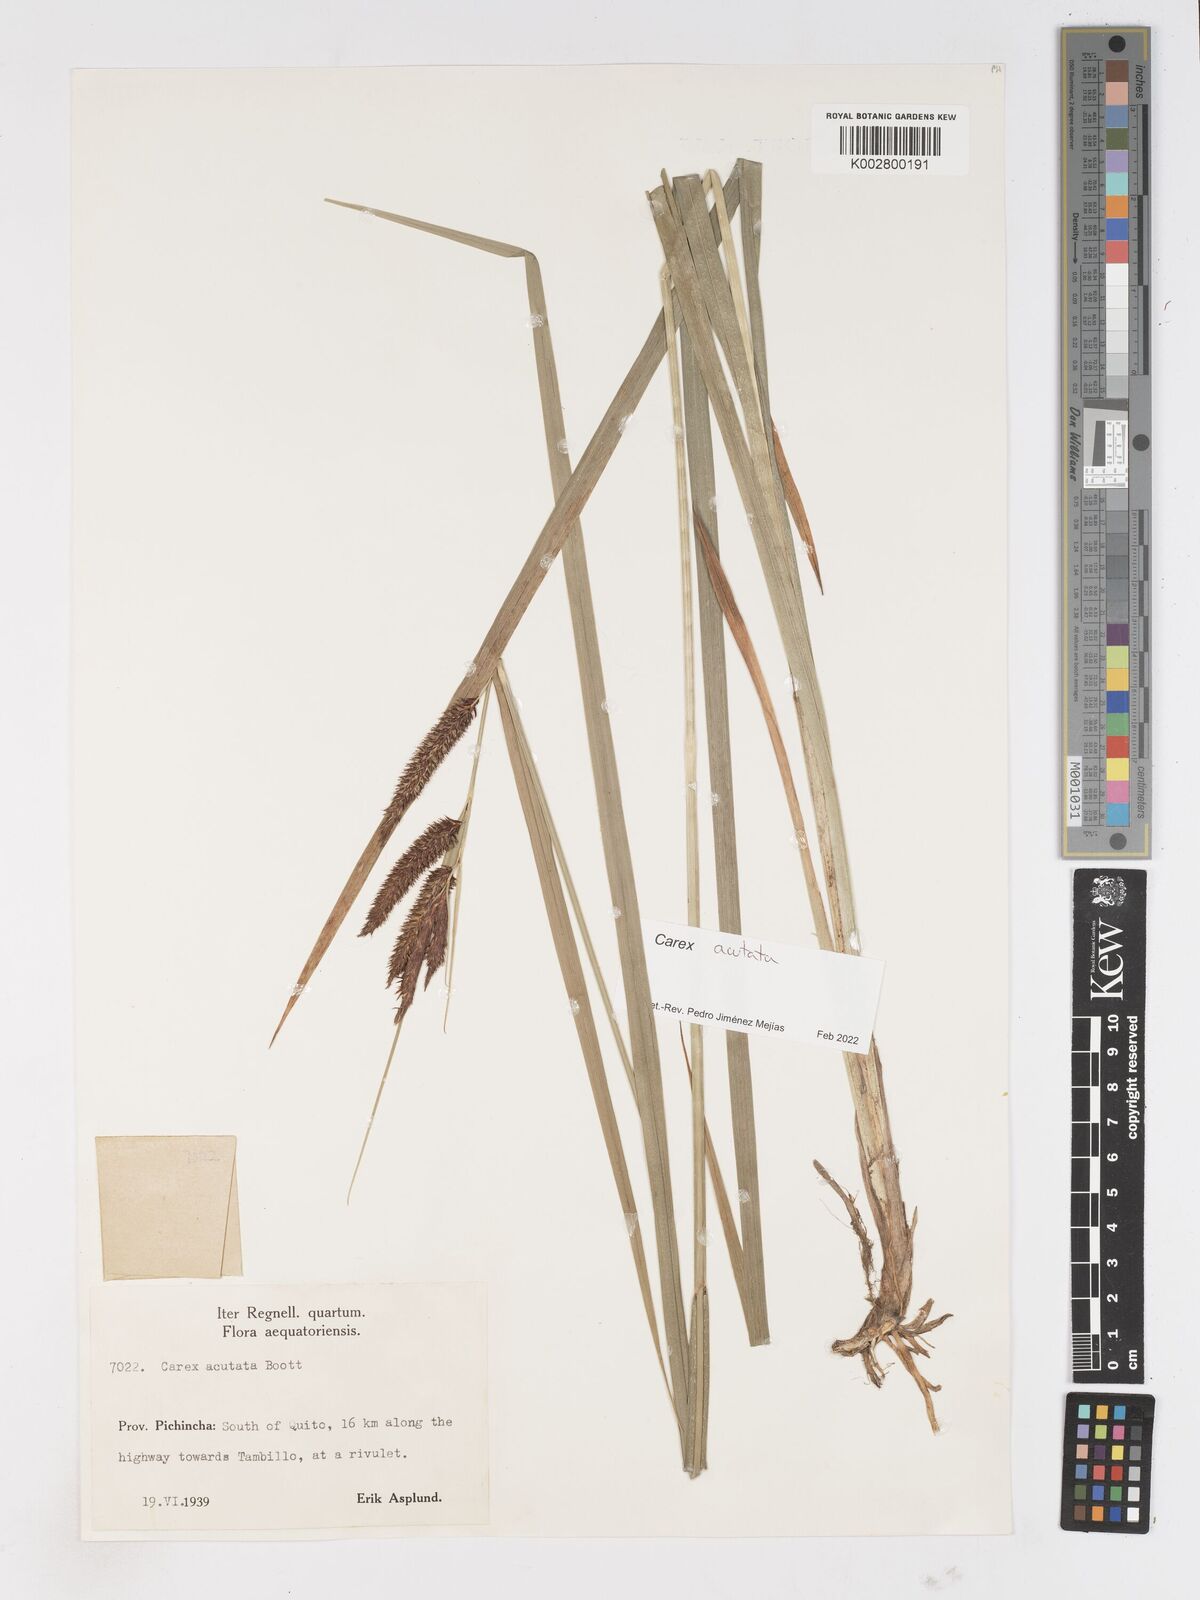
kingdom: Plantae
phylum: Tracheophyta
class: Liliopsida
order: Poales
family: Cyperaceae
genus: Carex
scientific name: Carex acutata
